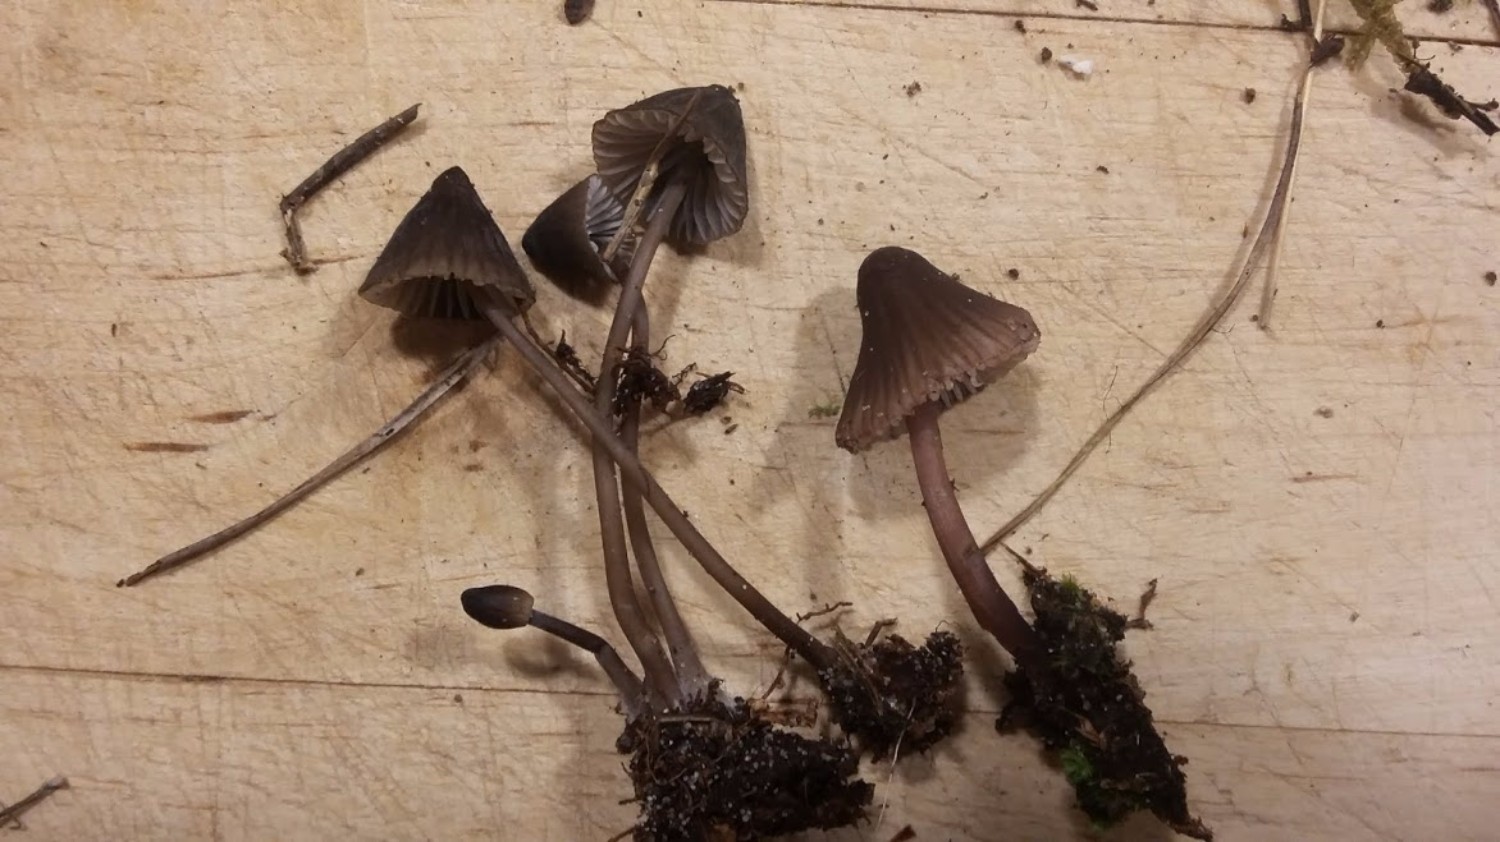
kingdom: Fungi
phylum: Basidiomycota
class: Agaricomycetes
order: Agaricales
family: Mycenaceae
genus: Mycena
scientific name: Mycena
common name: huesvamp
